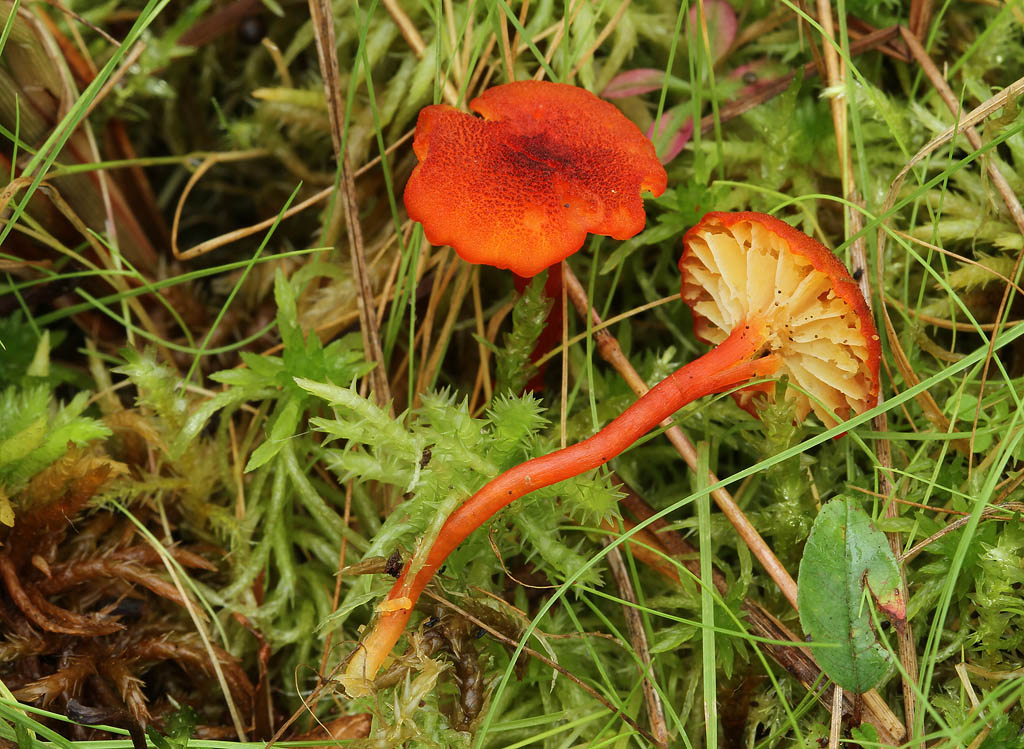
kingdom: Fungi
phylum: Basidiomycota
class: Agaricomycetes
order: Agaricales
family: Hygrophoraceae
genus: Hygrocybe
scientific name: Hygrocybe coccineocrenata
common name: tørvemos-vokshat
